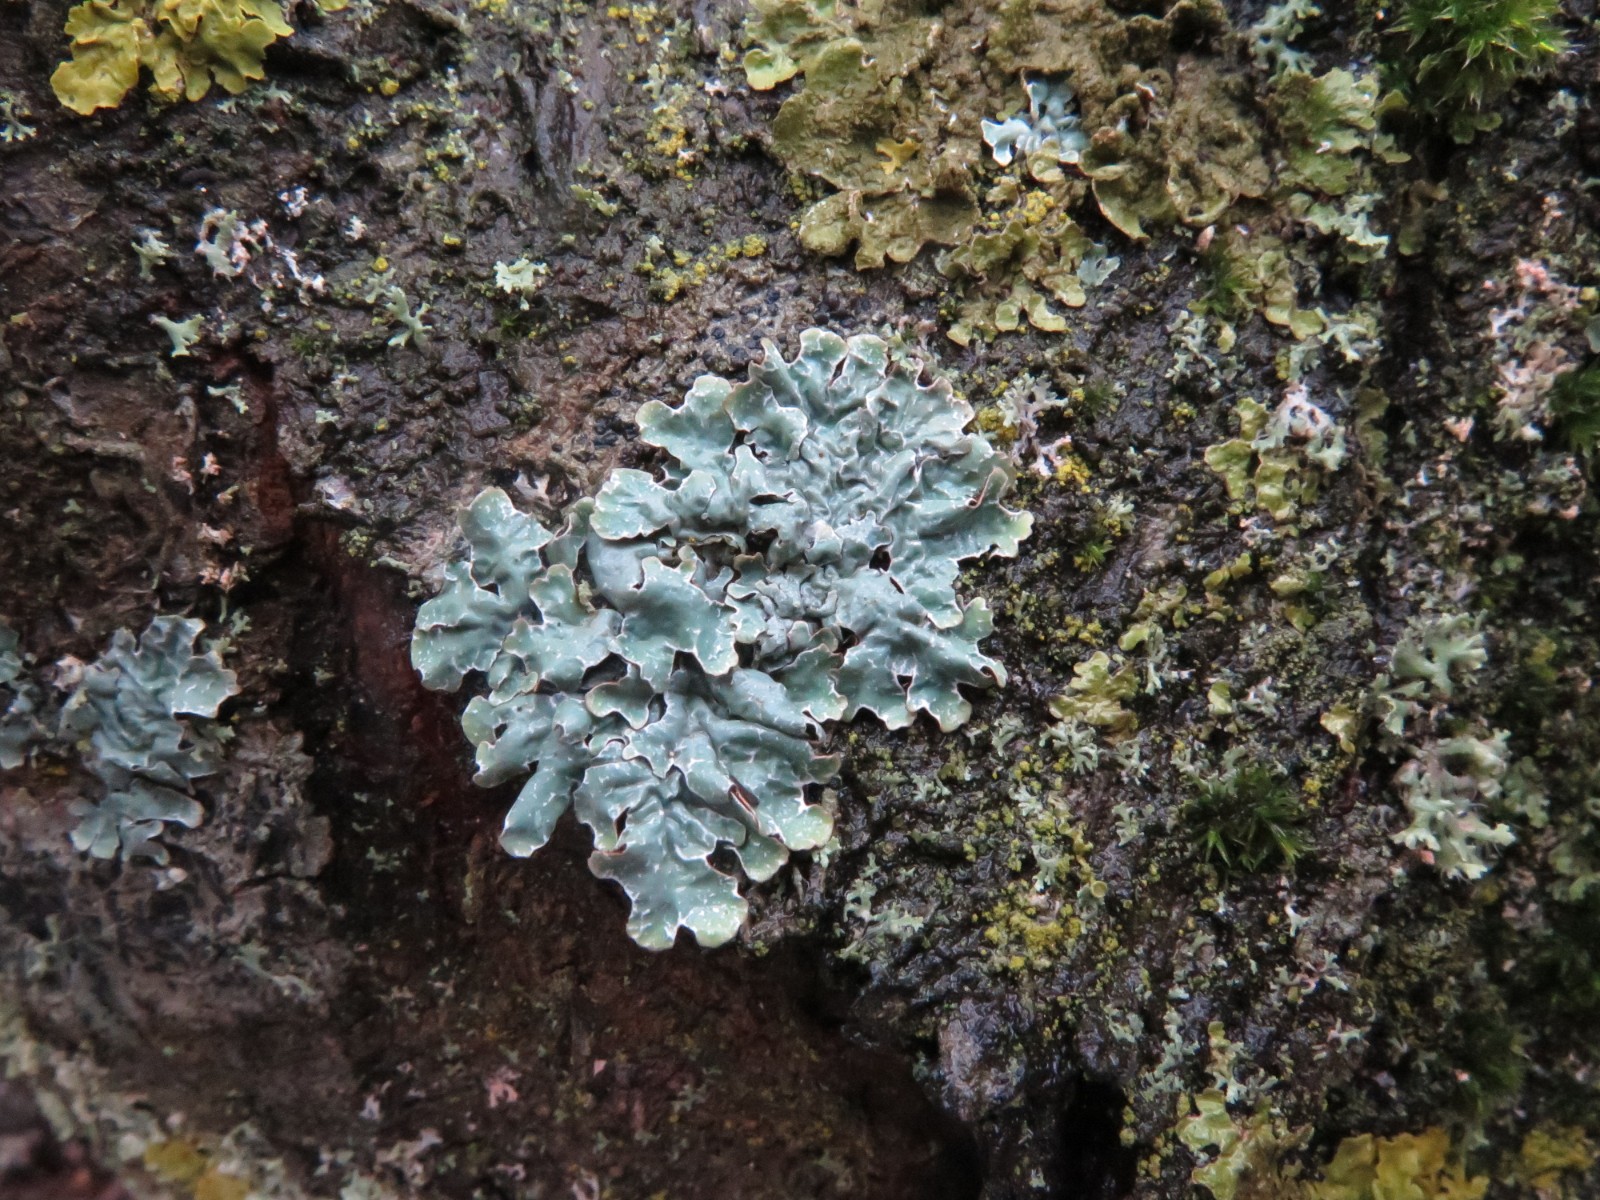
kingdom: Fungi
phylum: Ascomycota
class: Lecanoromycetes
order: Lecanorales
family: Parmeliaceae
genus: Parmelia
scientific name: Parmelia sulcata
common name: rynket skållav
